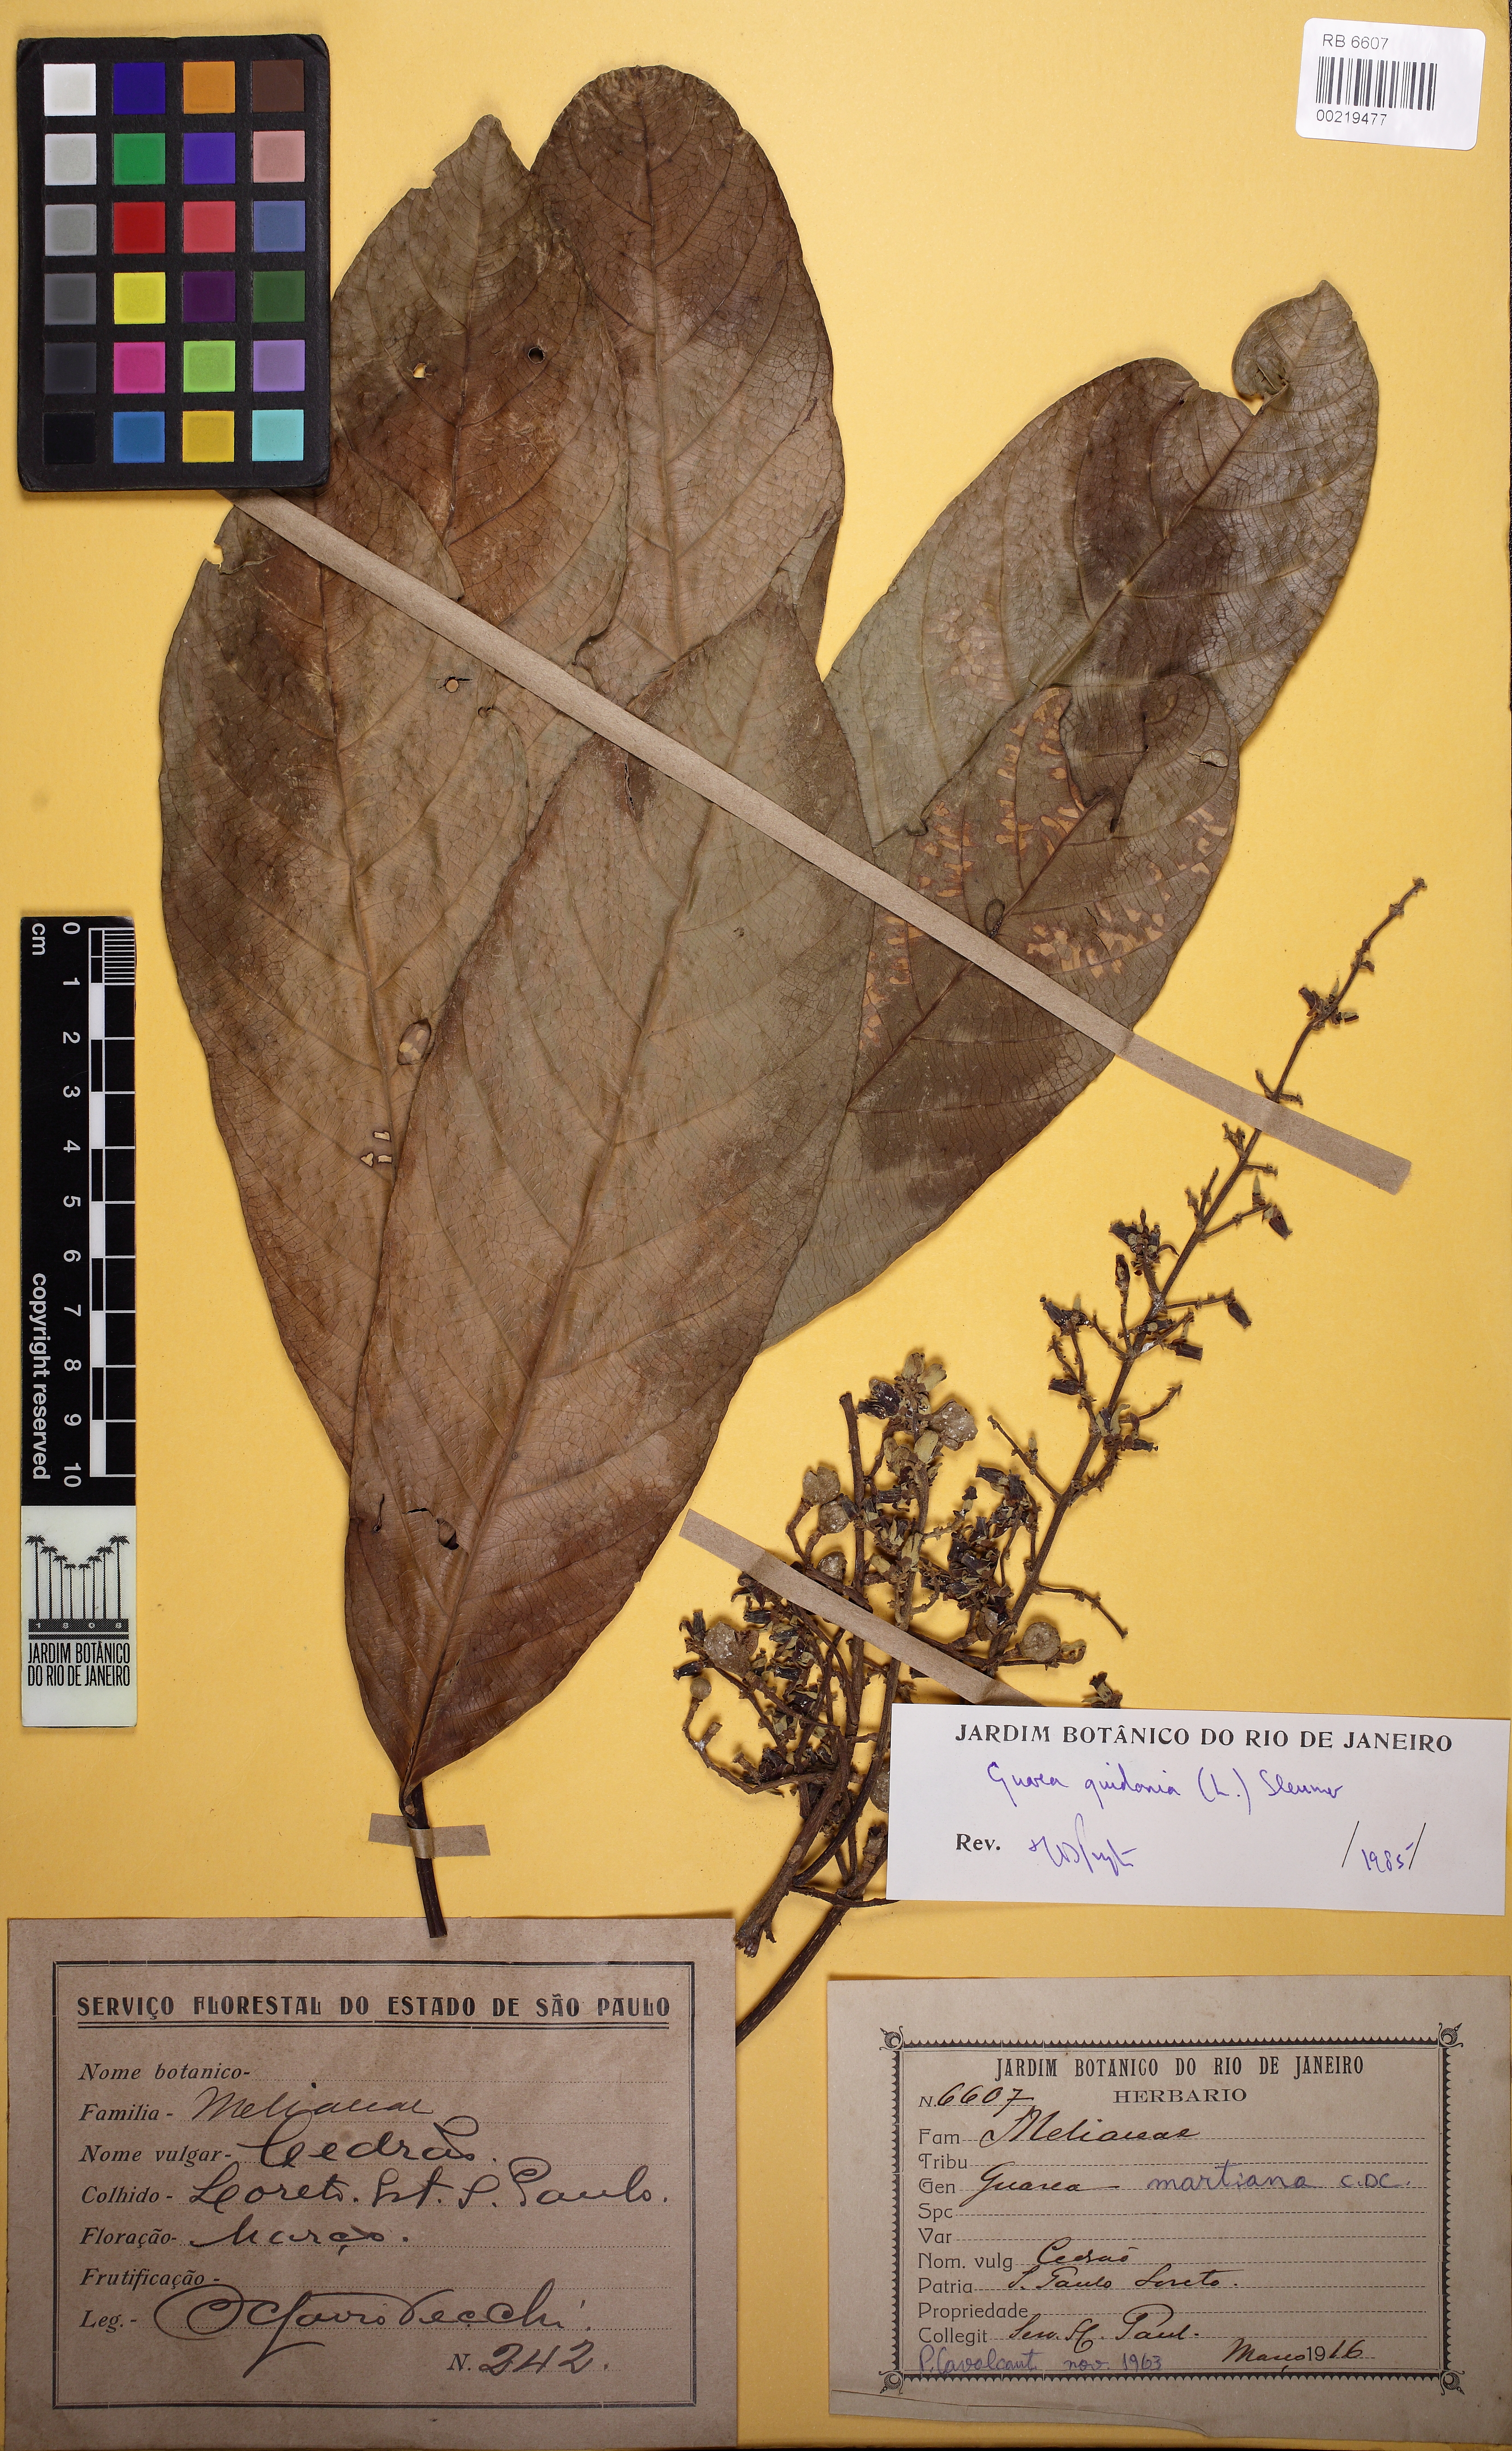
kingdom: Plantae
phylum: Tracheophyta
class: Magnoliopsida
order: Sapindales
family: Meliaceae
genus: Guarea
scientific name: Guarea guidonia
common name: American muskwood
